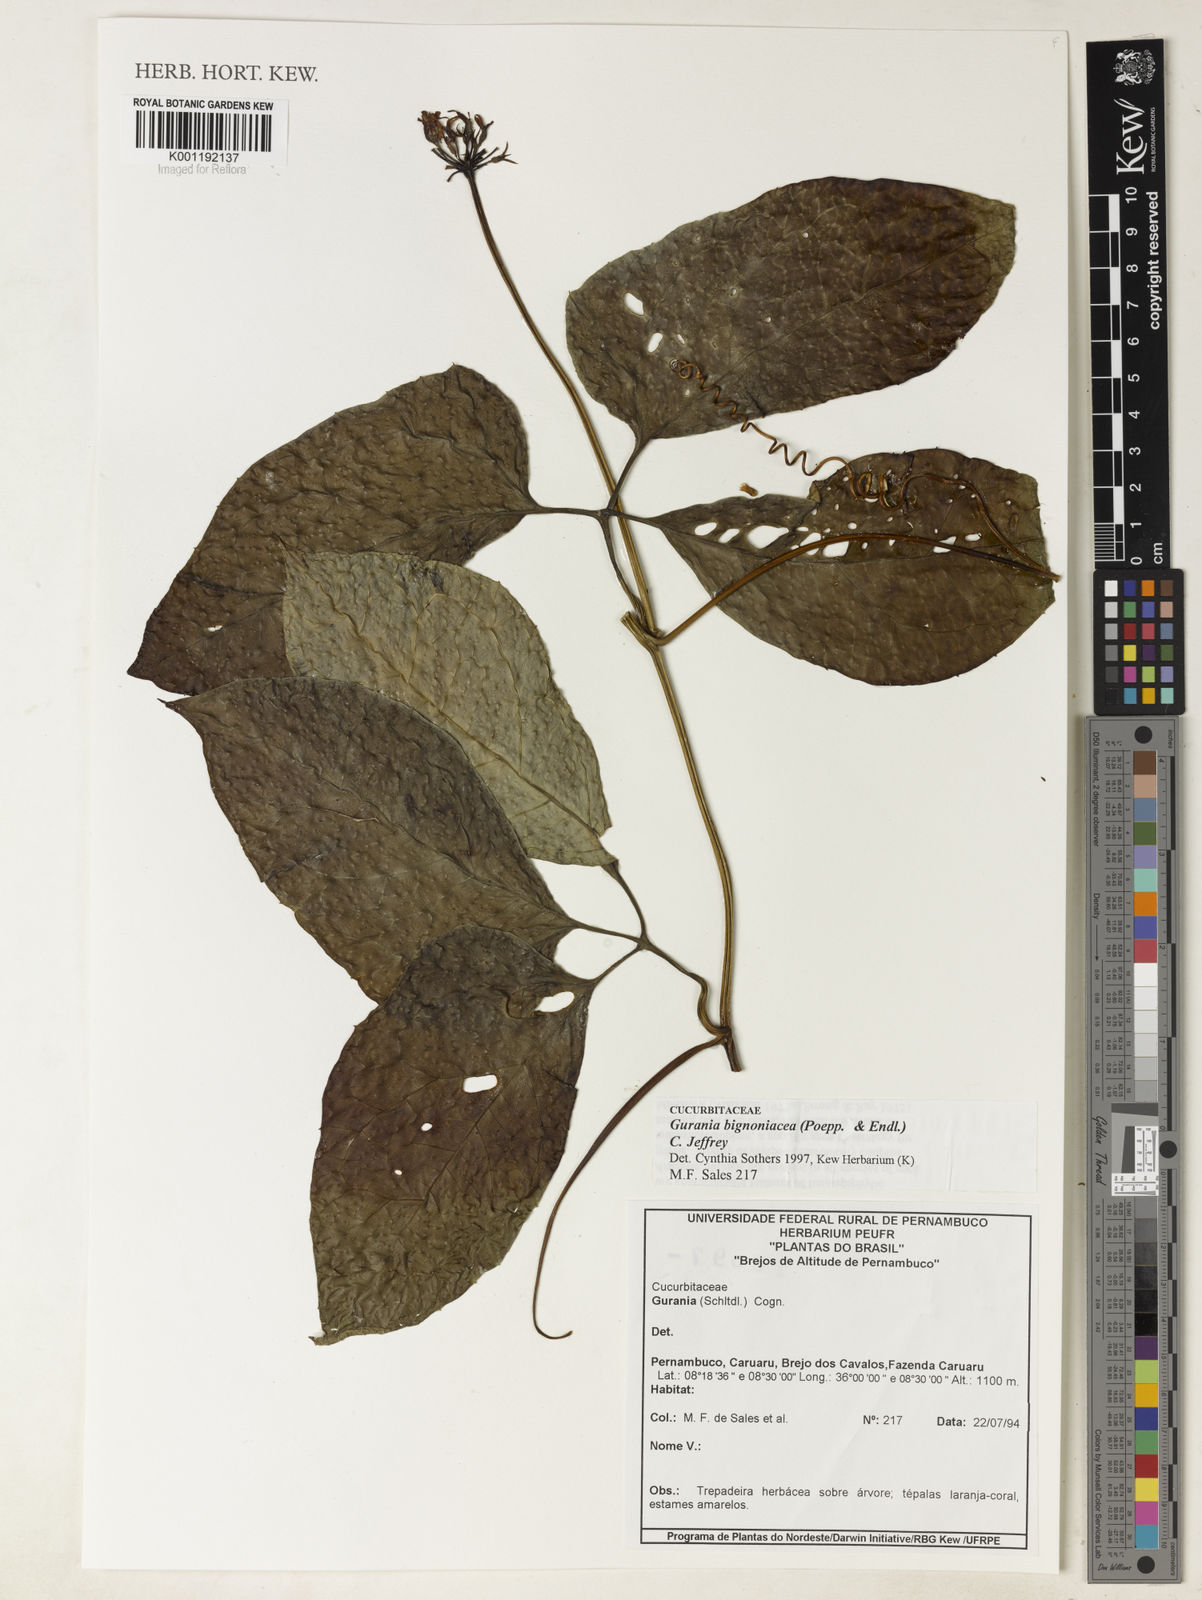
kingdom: Plantae
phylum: Tracheophyta
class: Magnoliopsida
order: Cucurbitales
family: Cucurbitaceae
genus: Gurania
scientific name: Gurania bignoniacea
